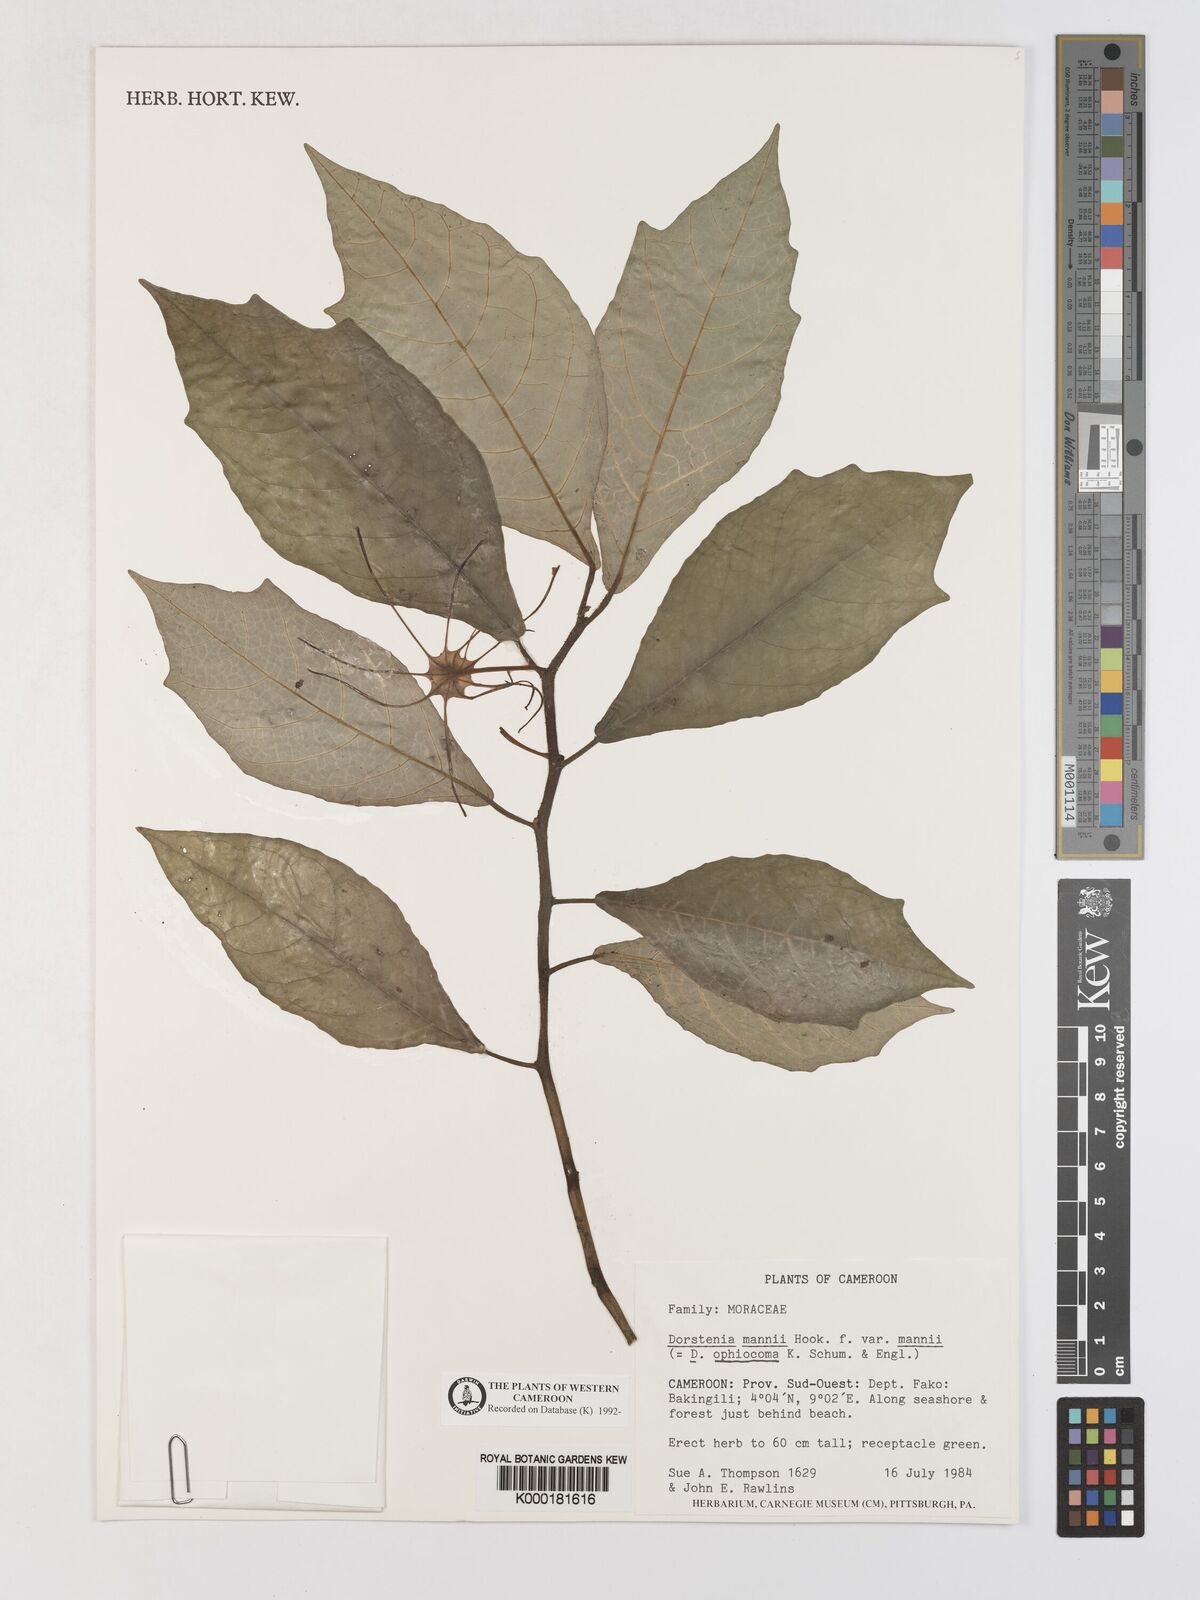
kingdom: Plantae
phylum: Tracheophyta
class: Magnoliopsida
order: Rosales
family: Moraceae
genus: Dorstenia
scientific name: Dorstenia mannii
